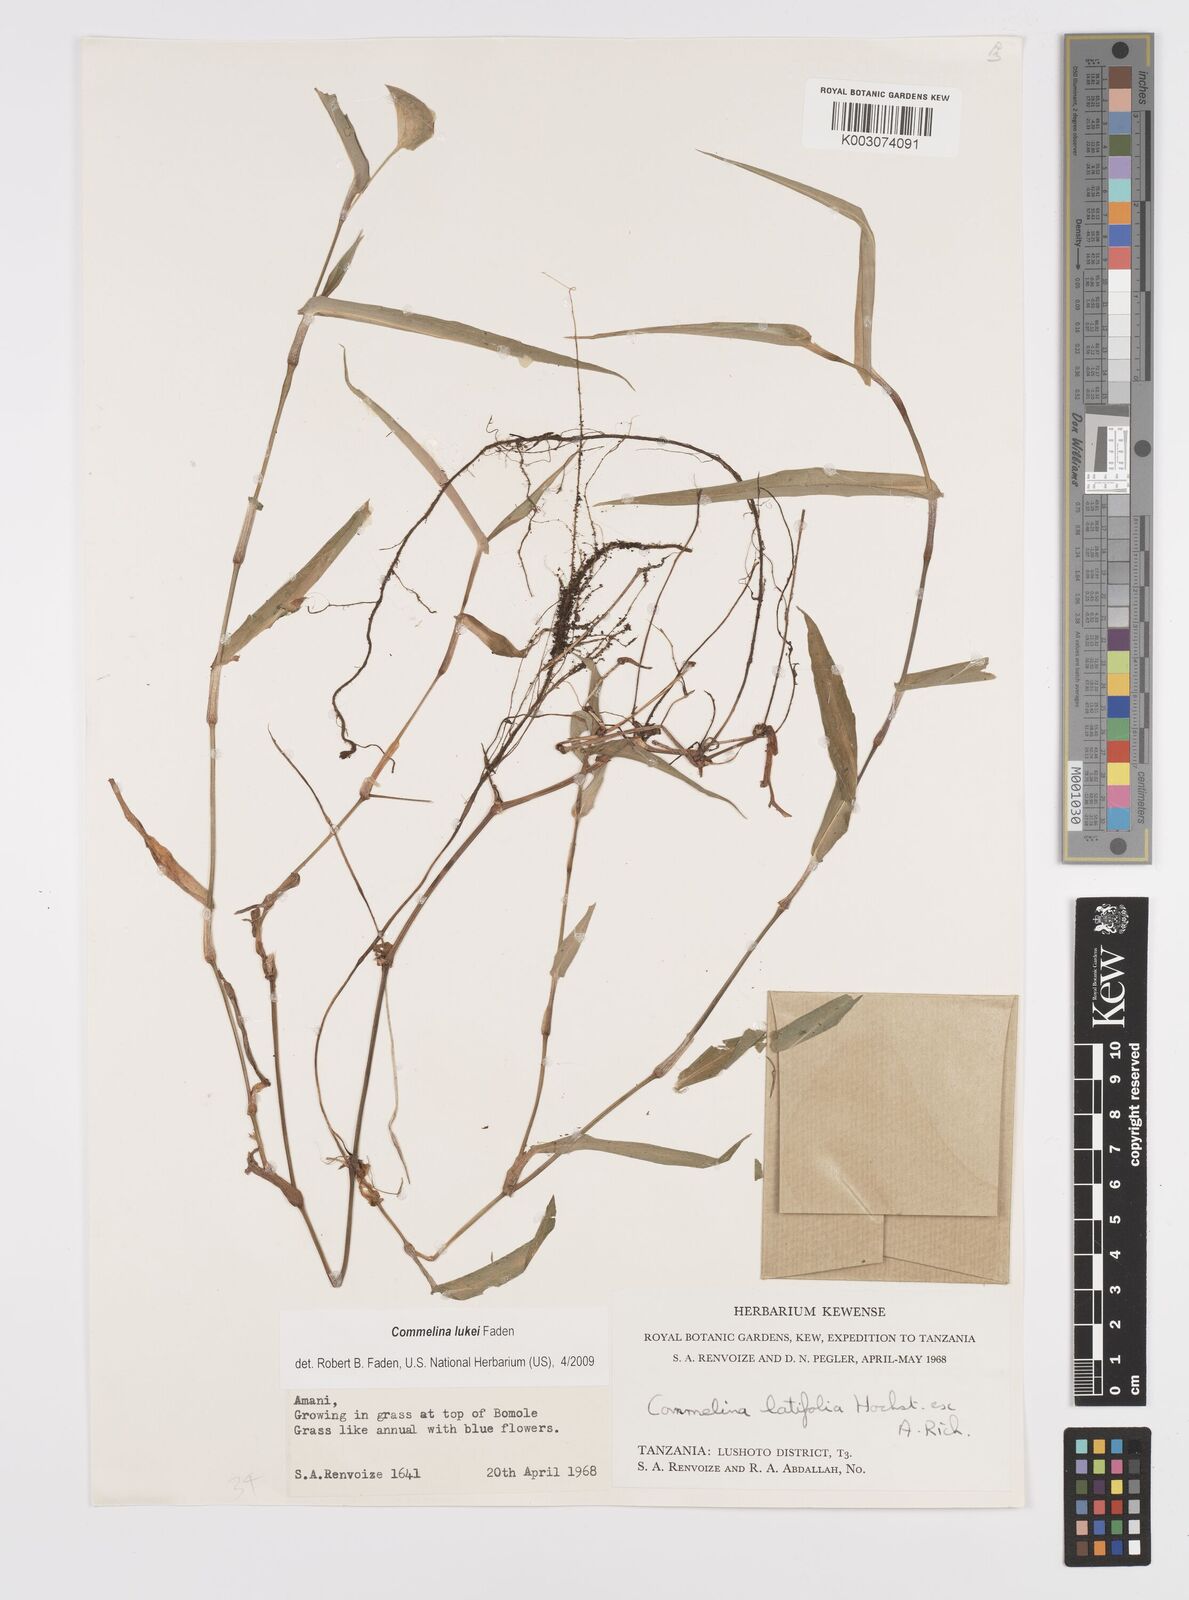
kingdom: Plantae
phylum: Tracheophyta
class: Liliopsida
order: Commelinales
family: Commelinaceae
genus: Commelina
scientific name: Commelina lukei
